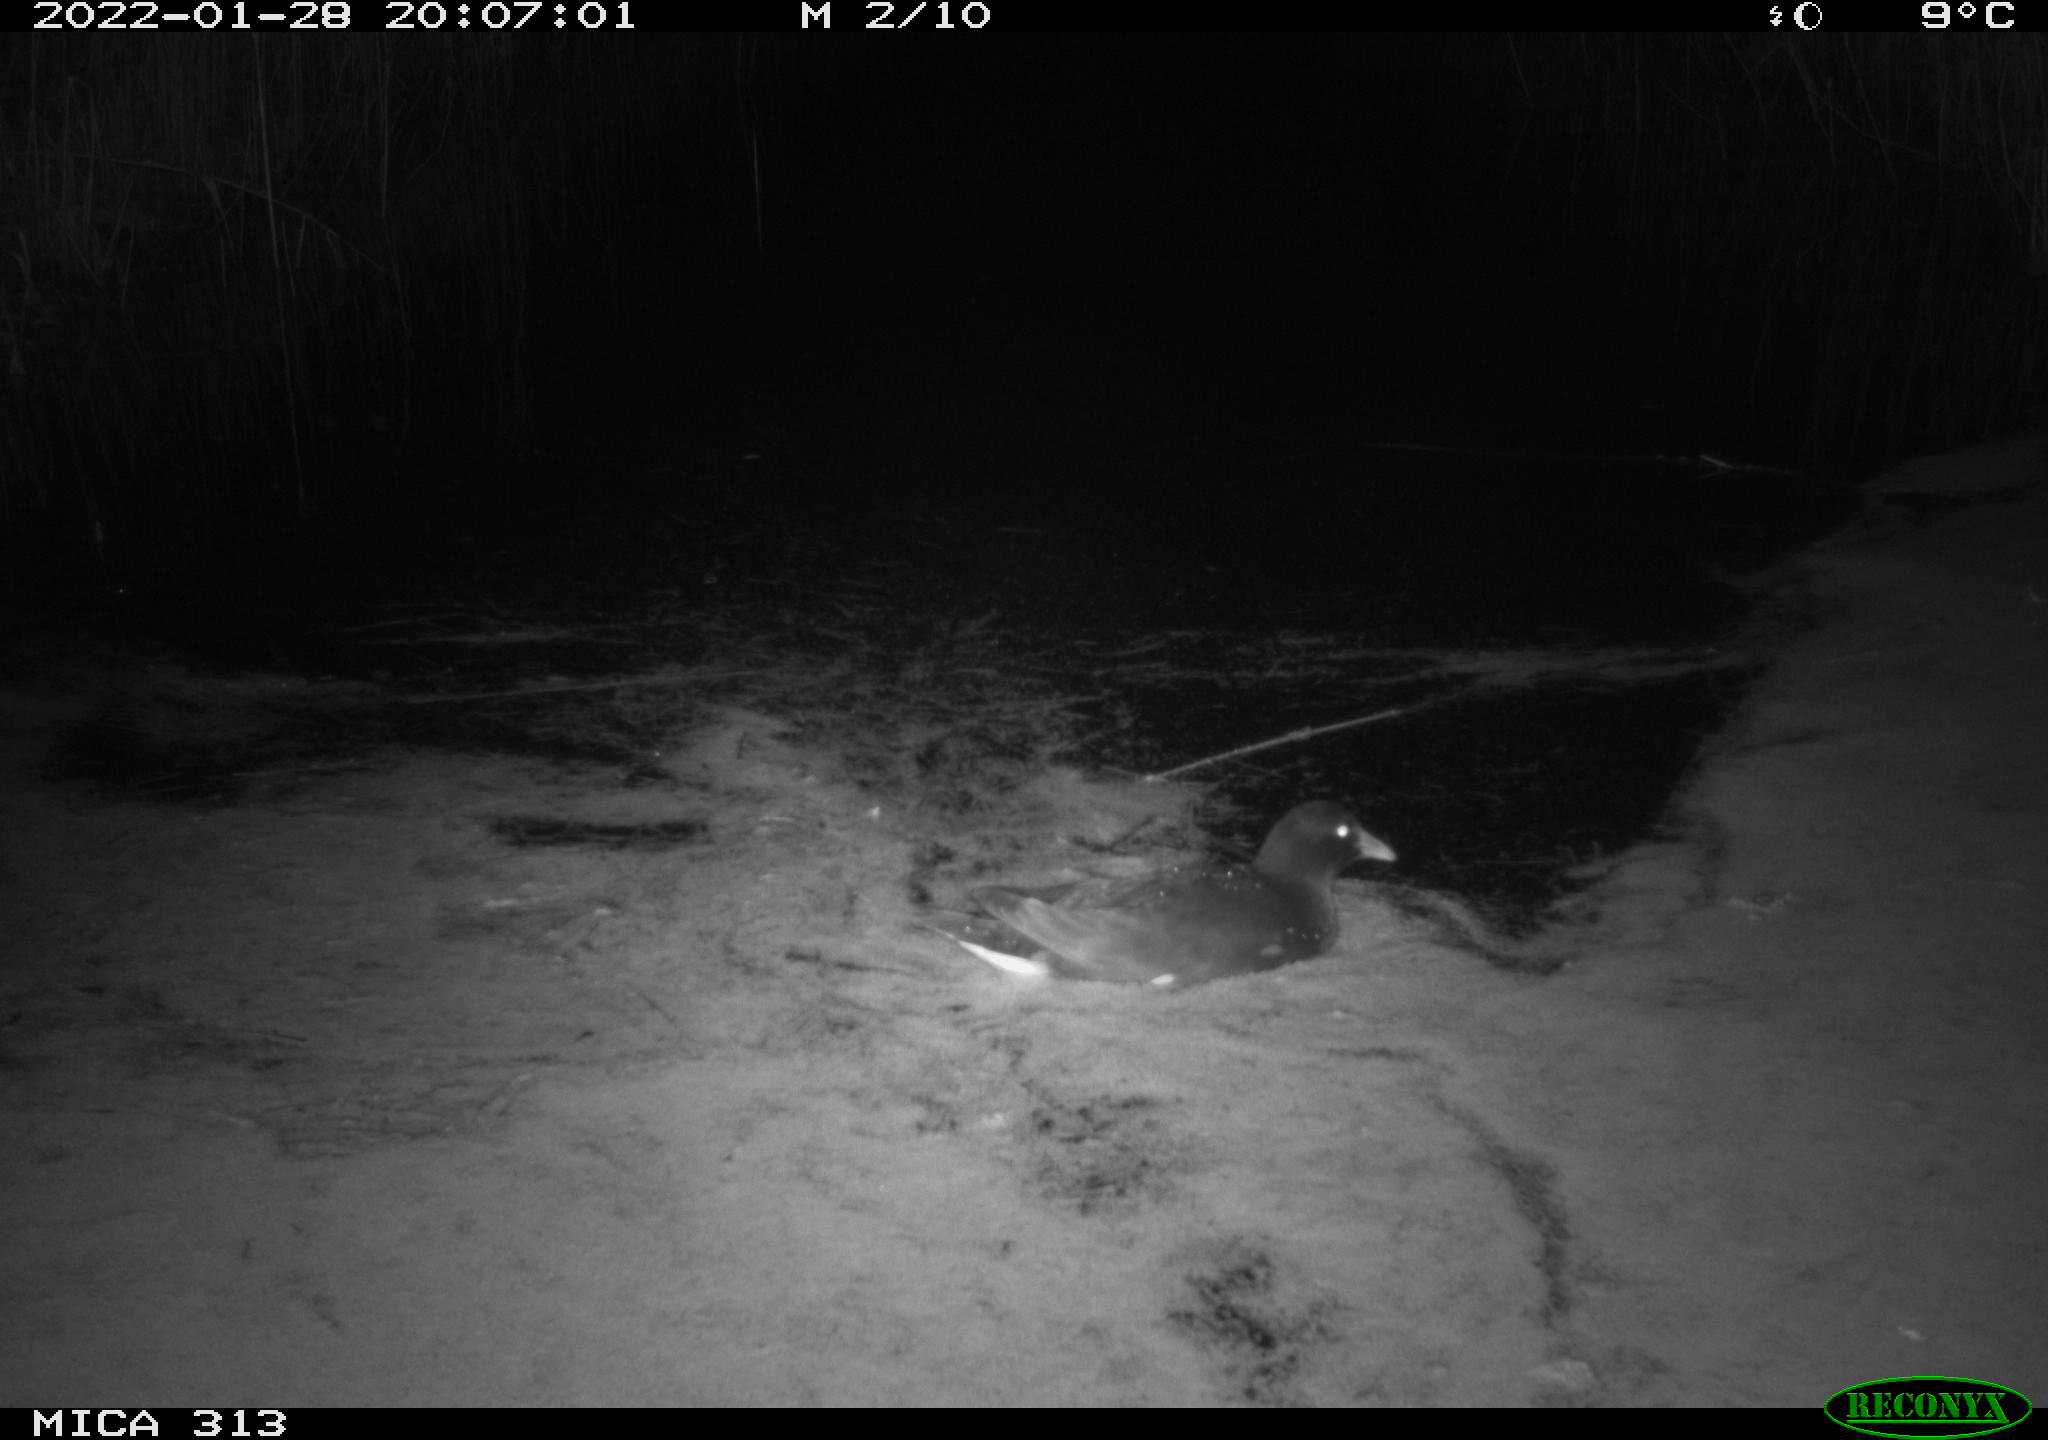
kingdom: Animalia
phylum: Chordata
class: Aves
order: Anseriformes
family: Anatidae
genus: Anas
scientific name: Anas
